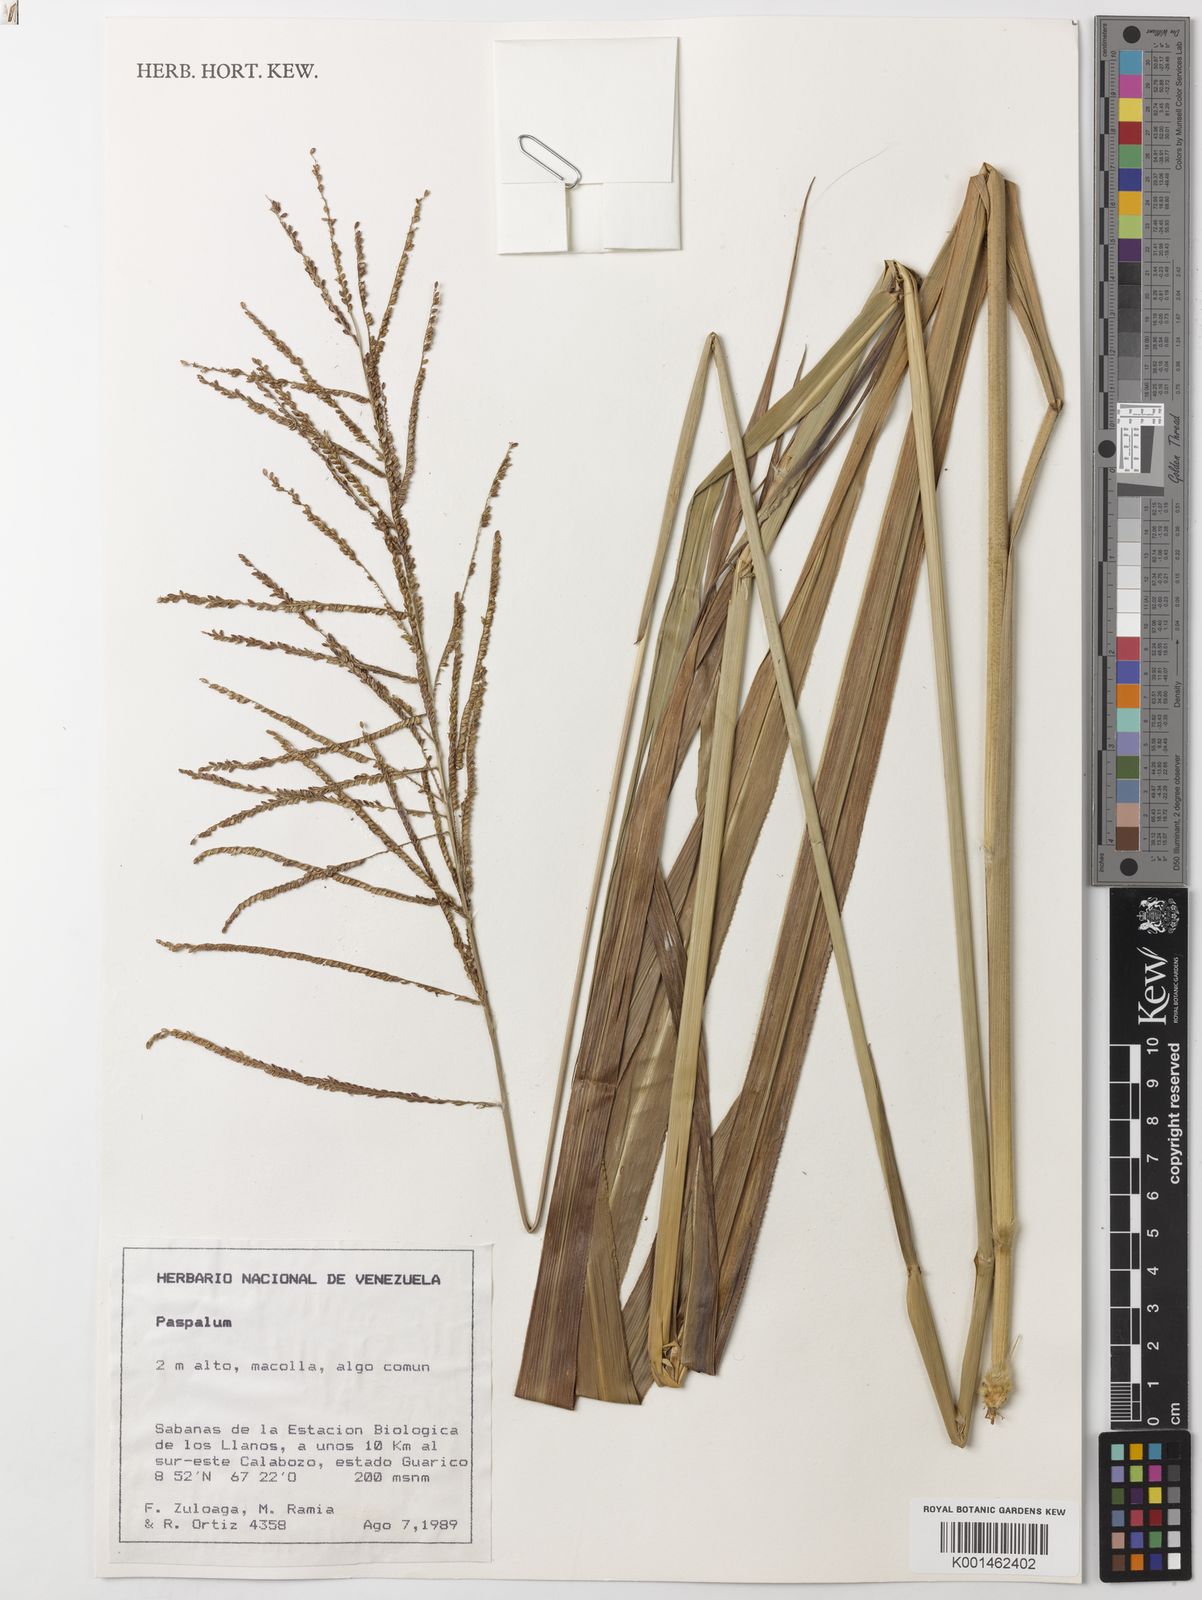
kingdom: Plantae
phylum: Tracheophyta
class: Liliopsida
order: Poales
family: Poaceae
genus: Paspalum
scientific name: Paspalum coryphaeum
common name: Emperor crowngrass
